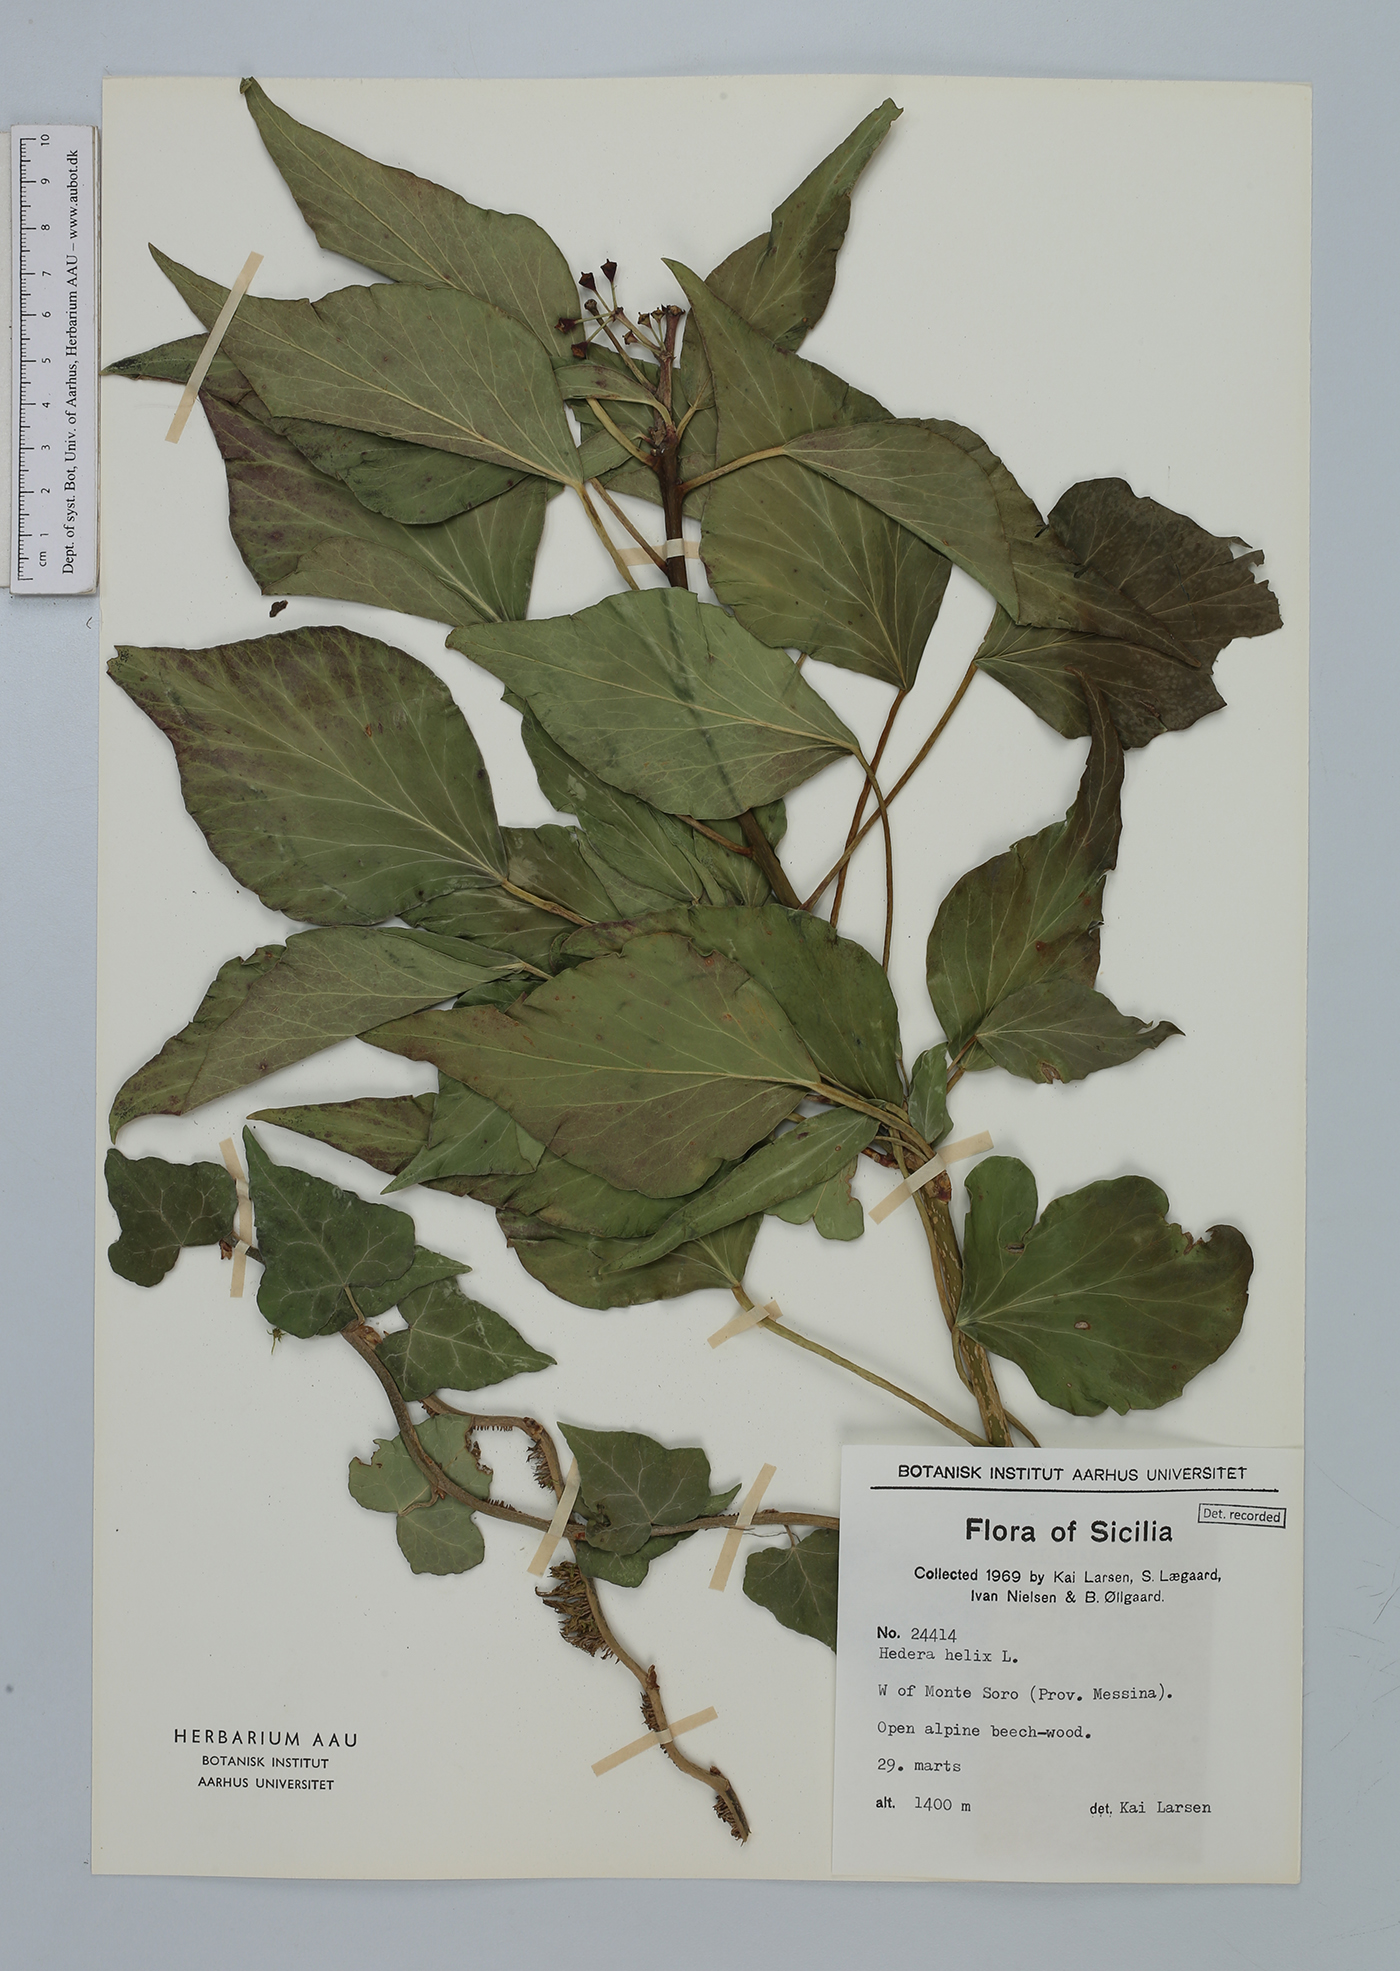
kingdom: Plantae
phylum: Tracheophyta
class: Magnoliopsida
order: Apiales
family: Araliaceae
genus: Hedera
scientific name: Hedera helix
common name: Ivy
